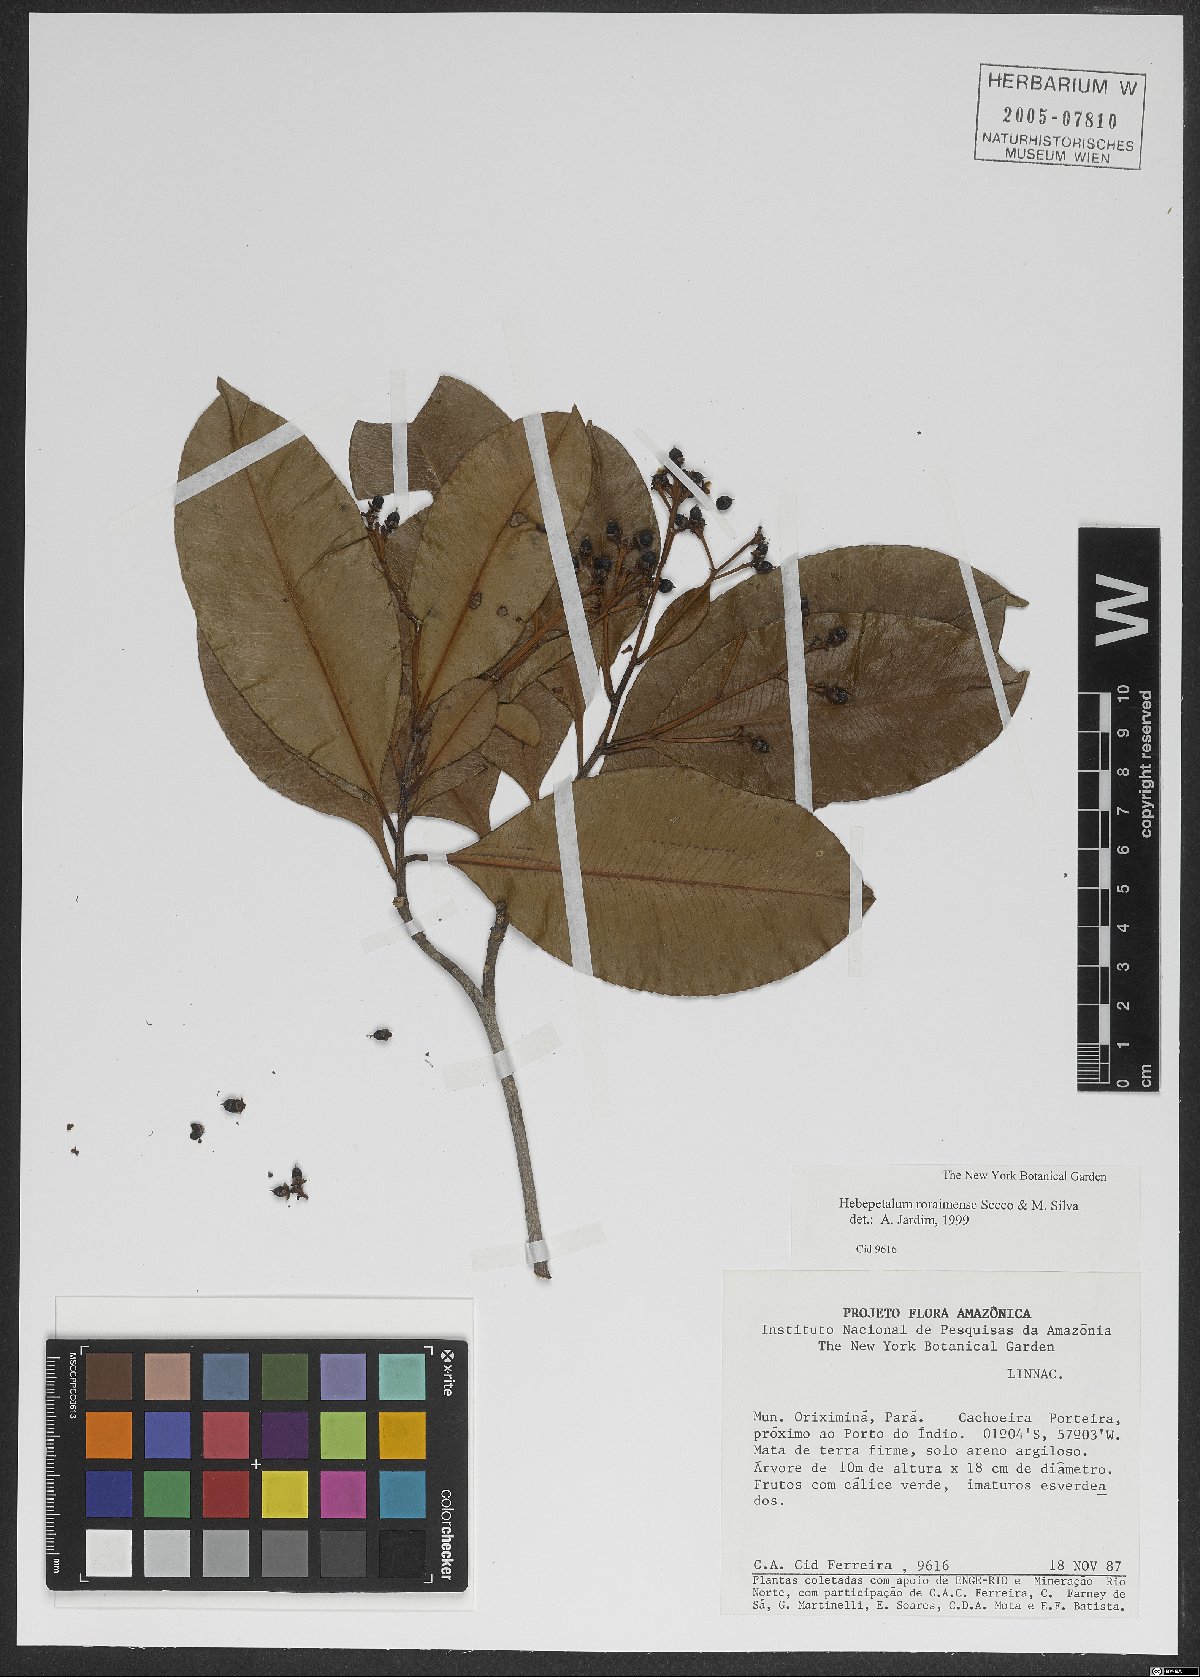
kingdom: Plantae
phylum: Tracheophyta
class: Magnoliopsida
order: Malpighiales
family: Linaceae
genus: Hebepetalum
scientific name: Hebepetalum roraimense
